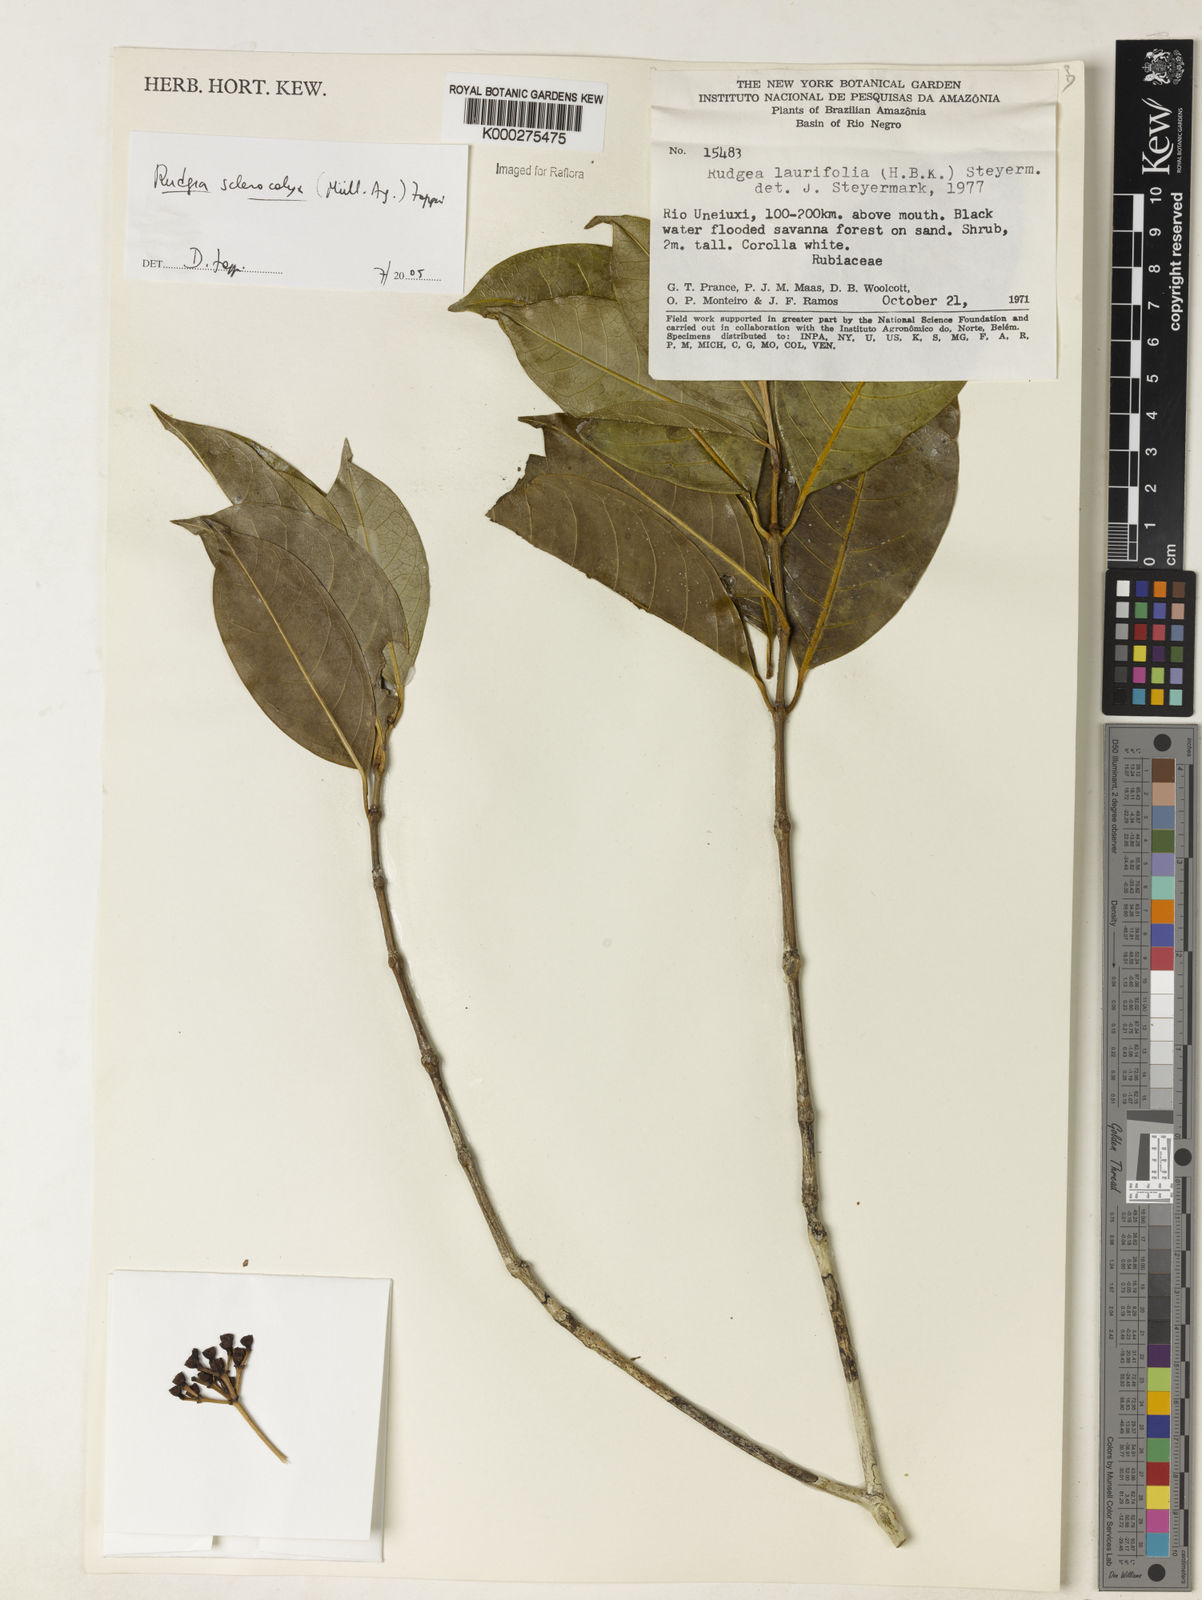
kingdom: Plantae
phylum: Tracheophyta
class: Magnoliopsida
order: Gentianales
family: Rubiaceae
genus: Rudgea
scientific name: Rudgea sclerocalyx
